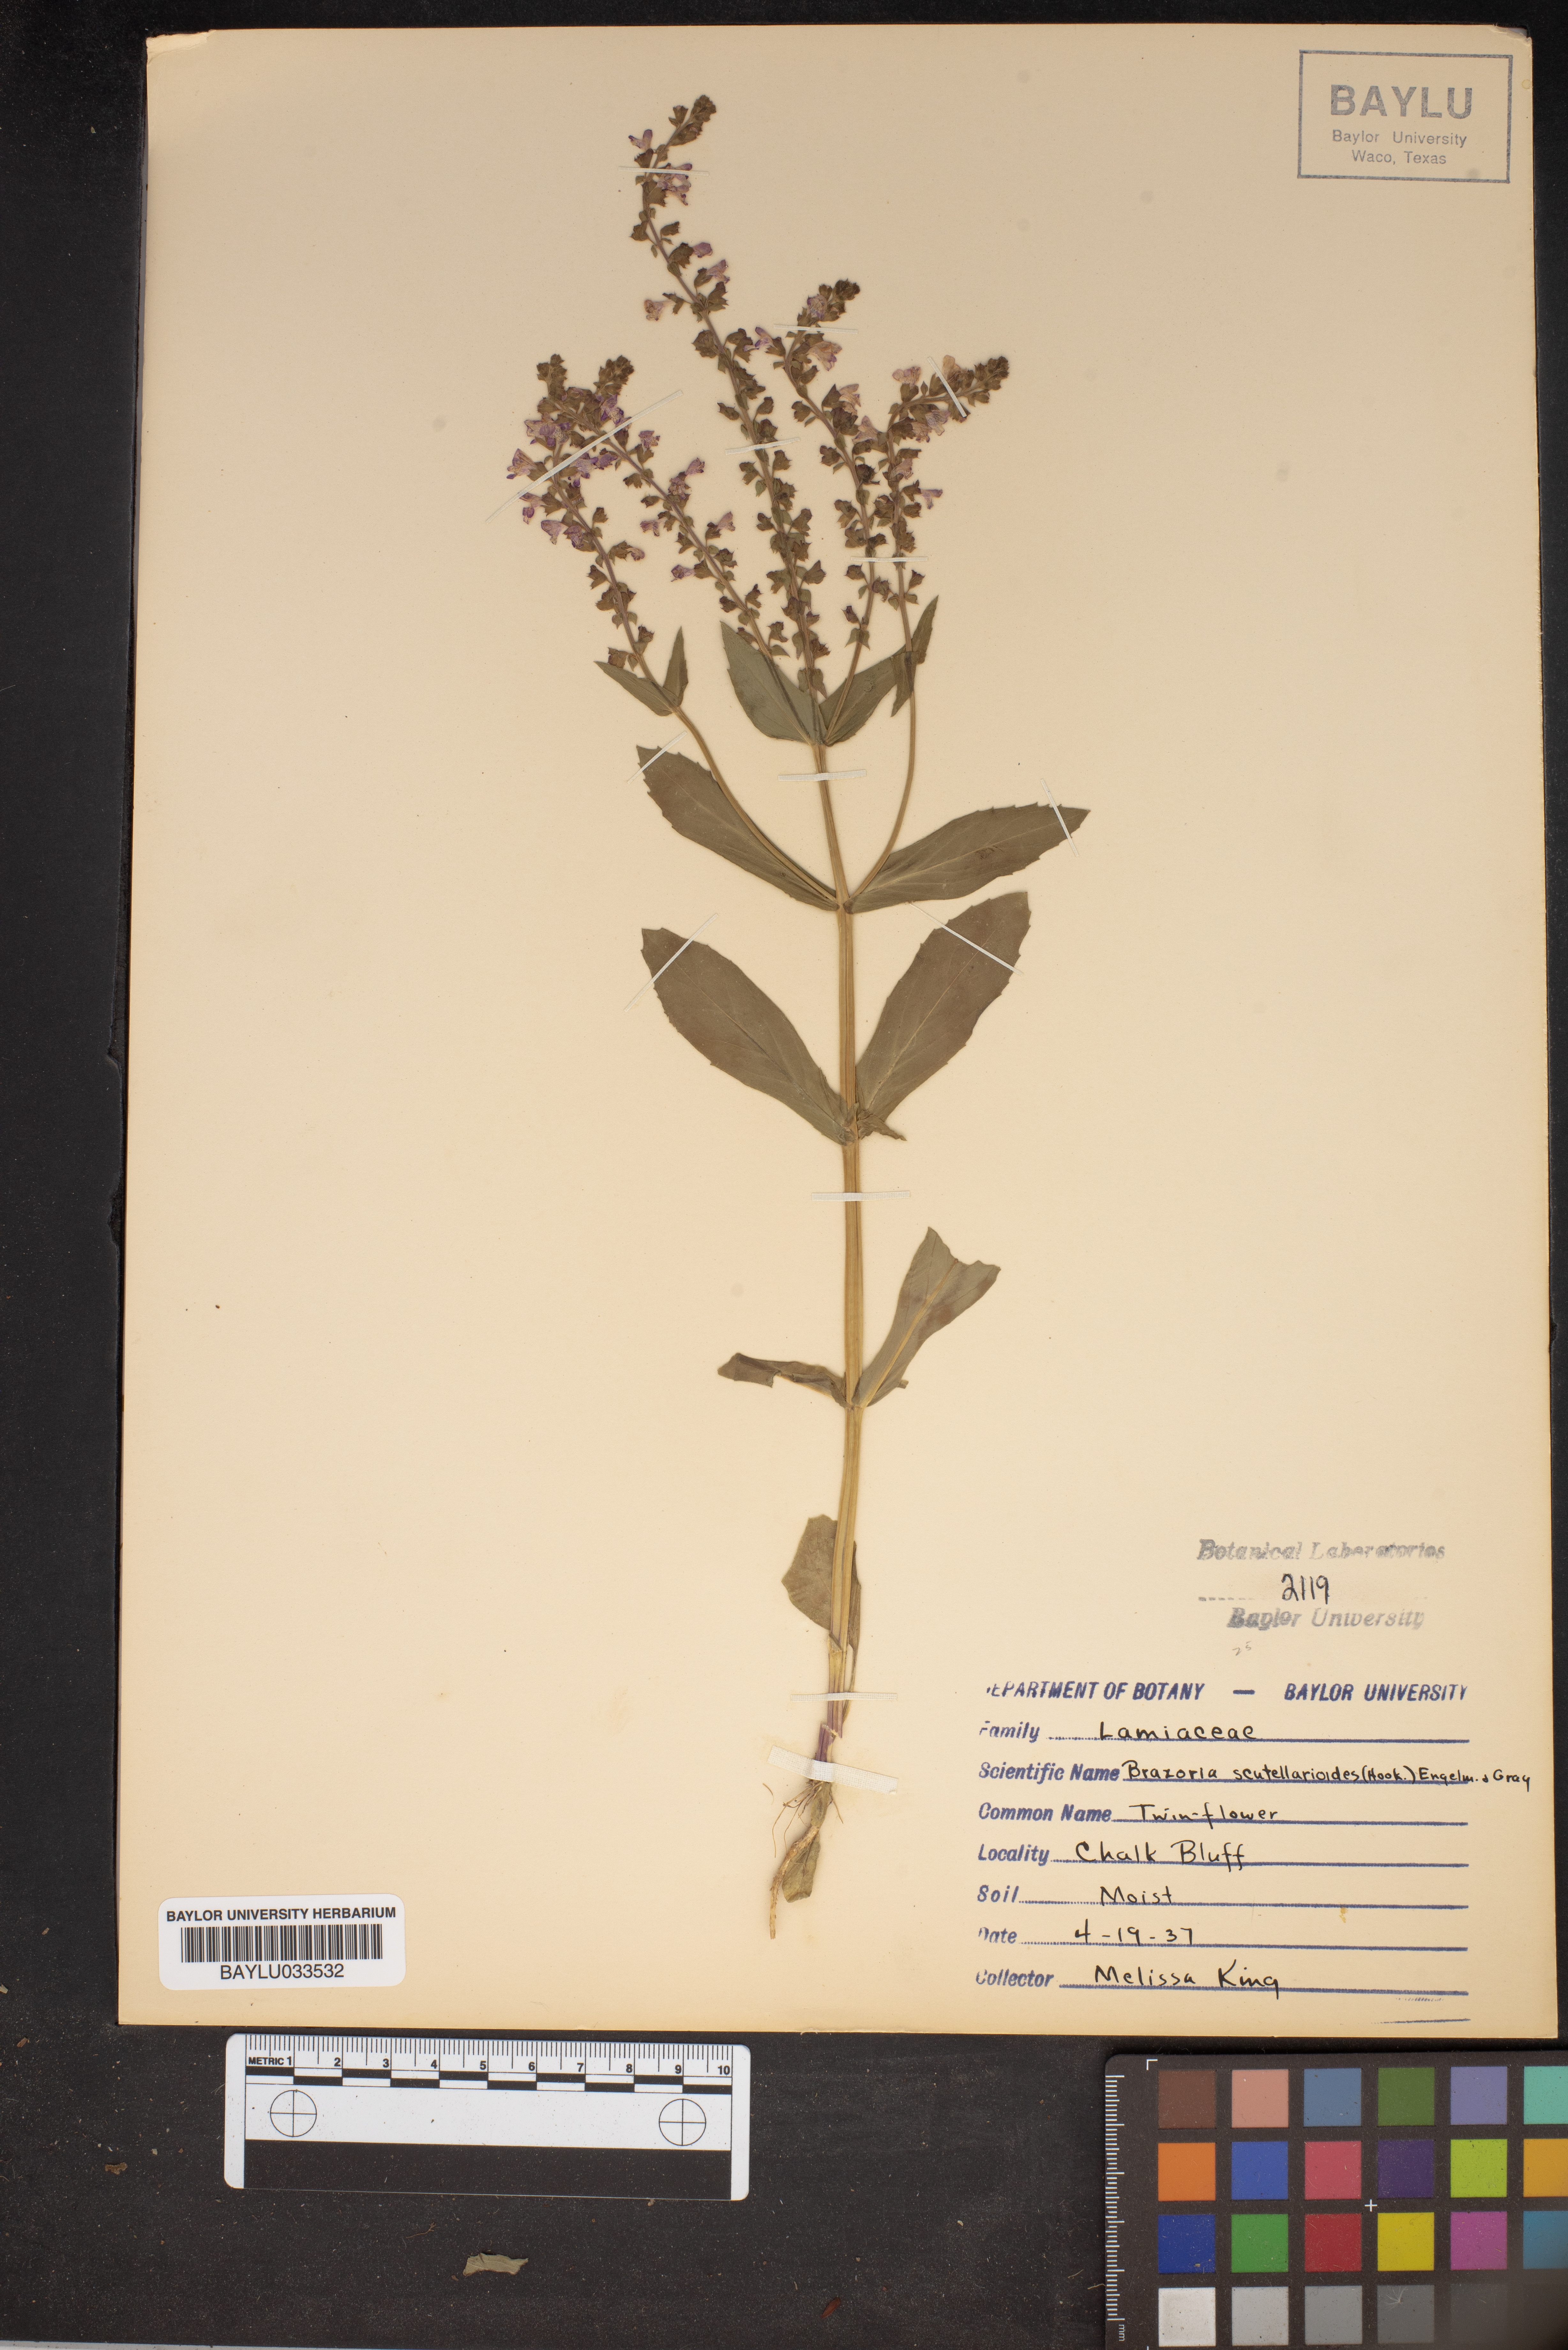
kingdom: Plantae
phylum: Tracheophyta
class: Magnoliopsida
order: Lamiales
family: Lamiaceae
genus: Warnockia
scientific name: Warnockia scutellarioides
